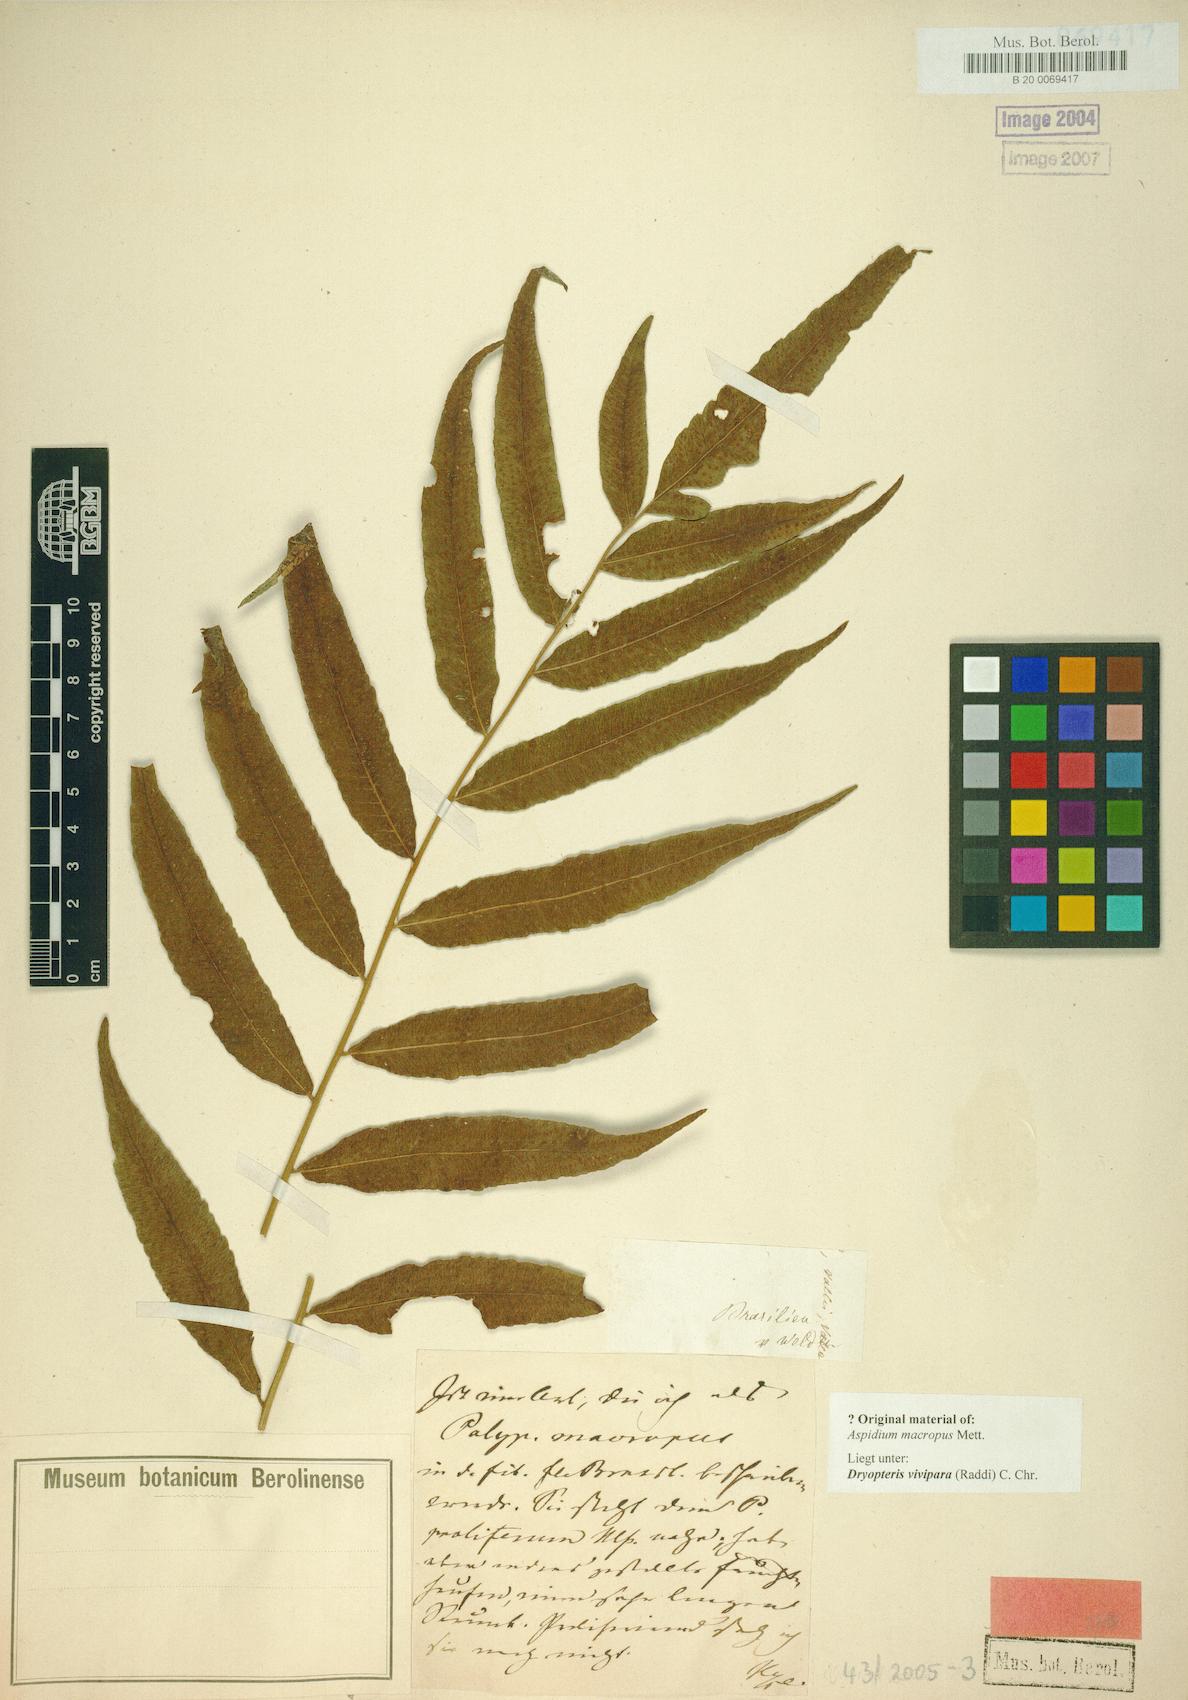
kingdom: Plantae
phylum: Tracheophyta
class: Polypodiopsida
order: Polypodiales
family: Thelypteridaceae
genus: Goniopteris
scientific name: Goniopteris vivipara
